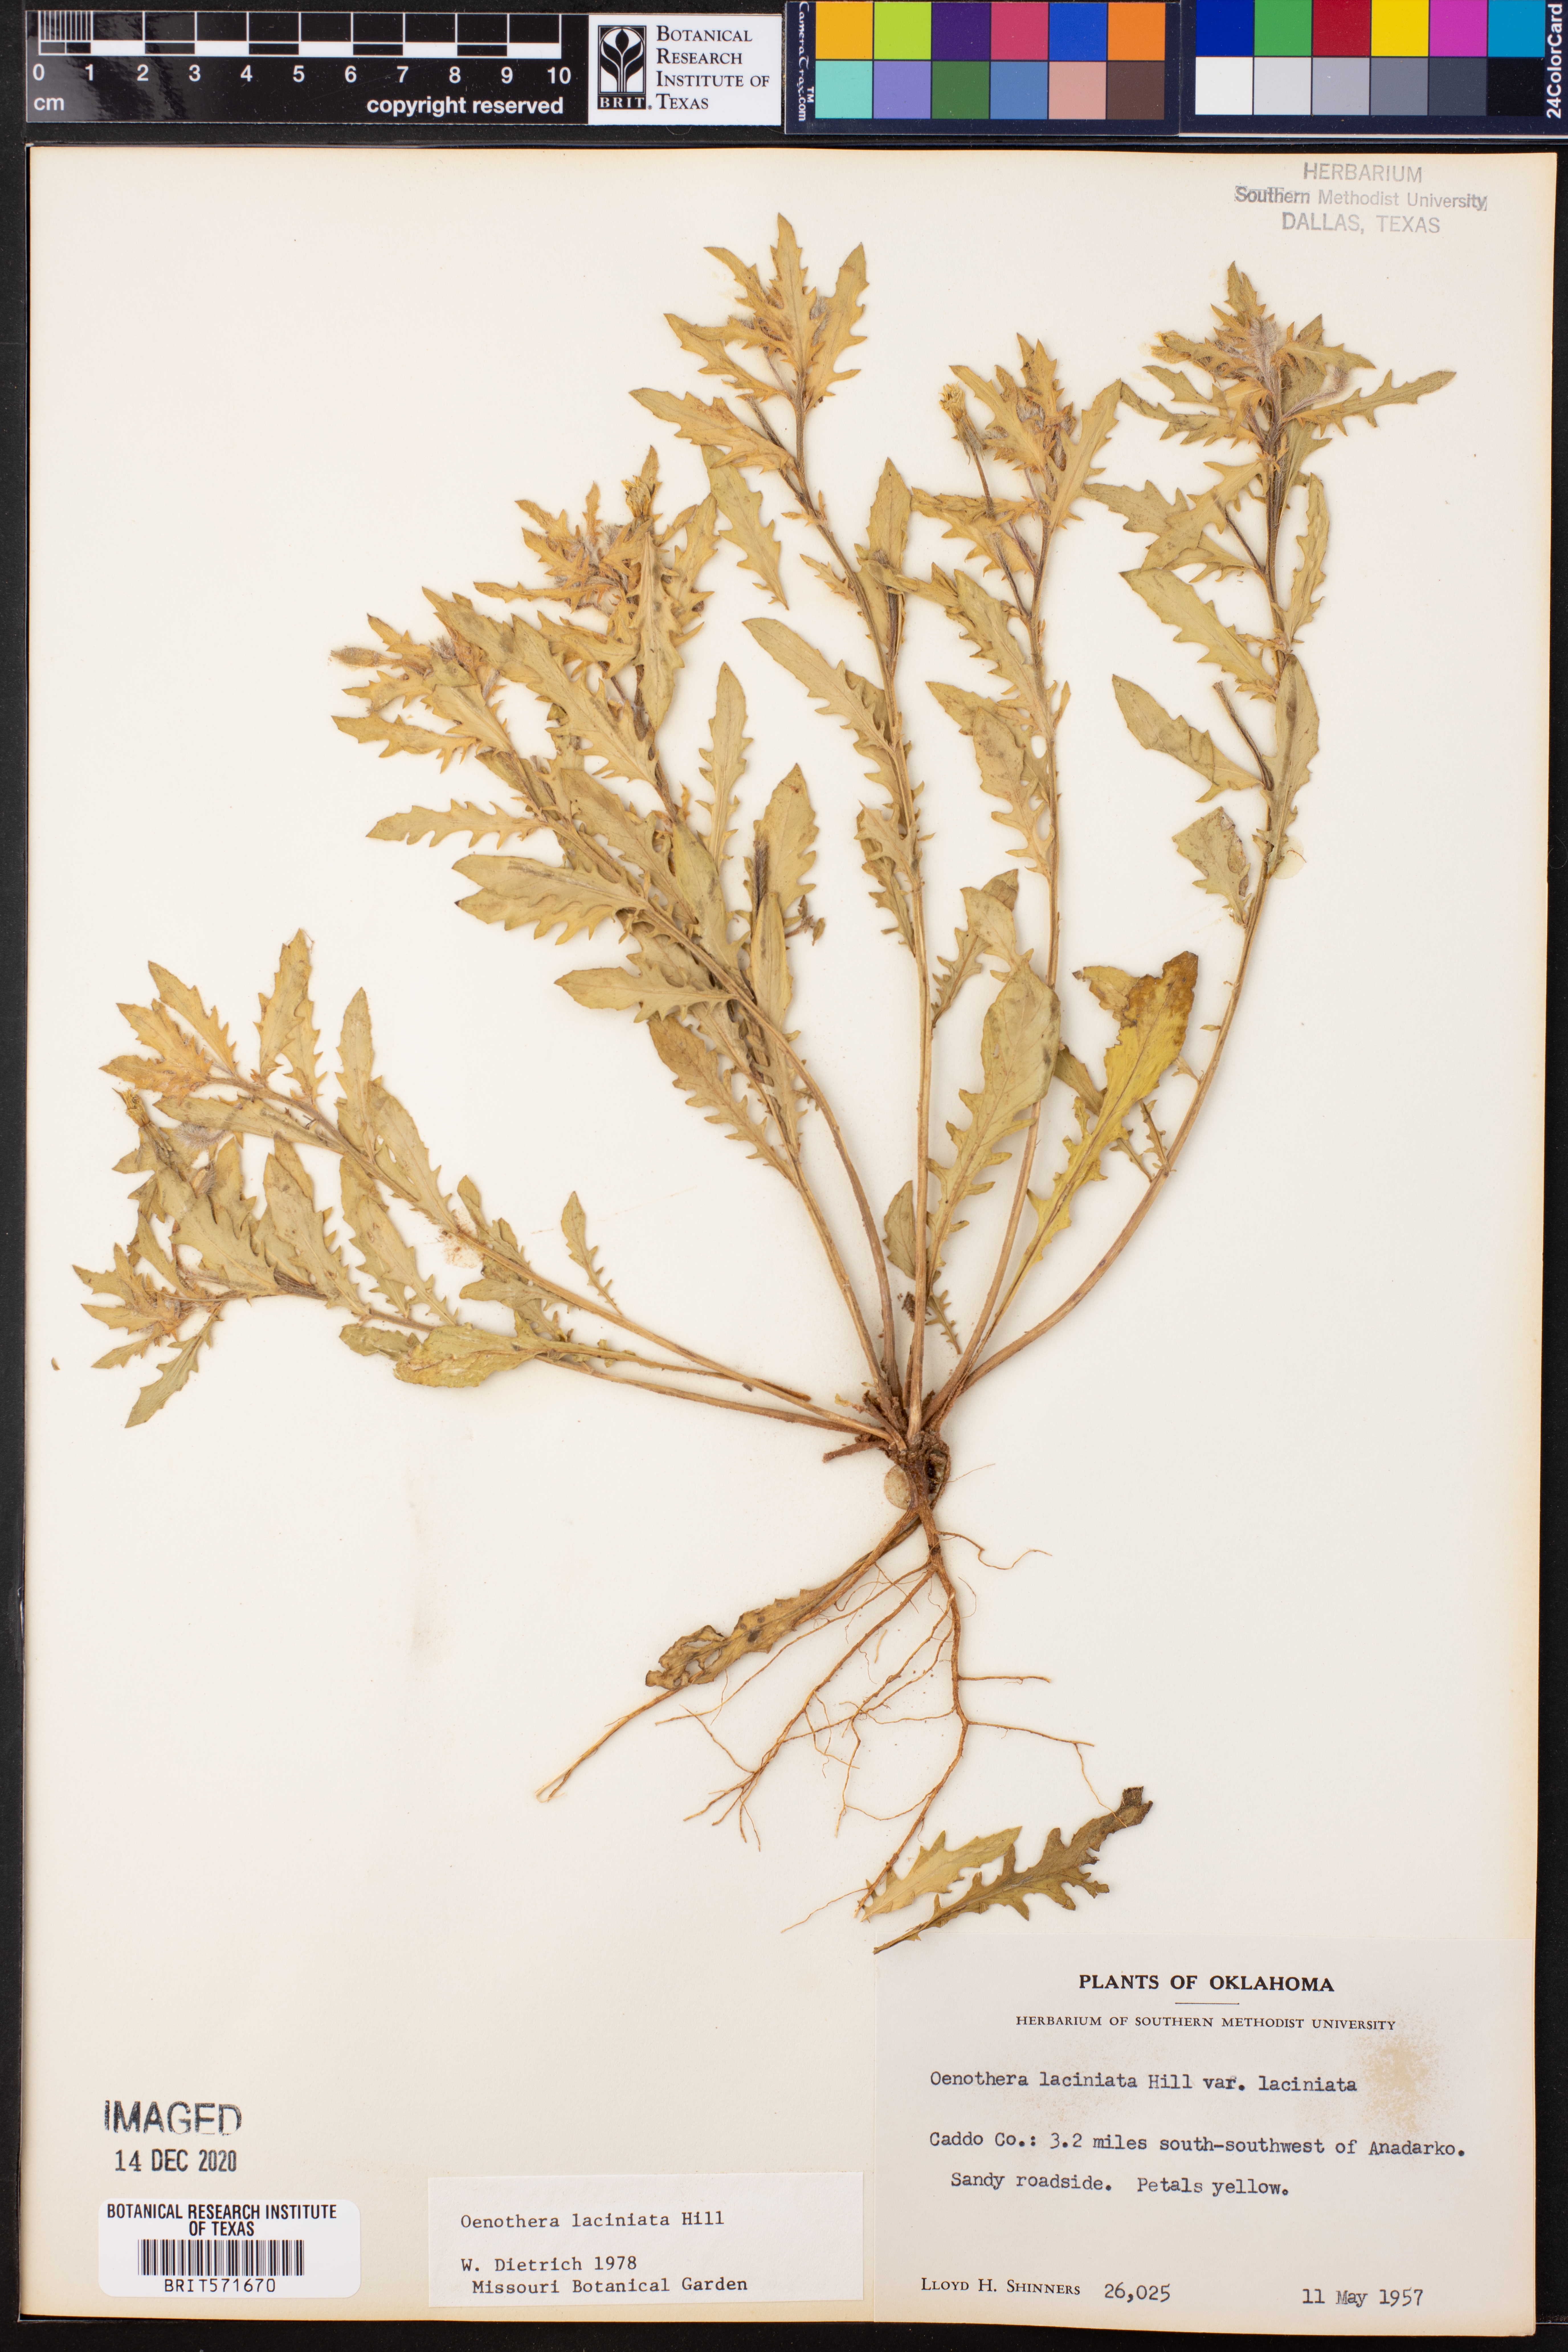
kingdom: Plantae
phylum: Tracheophyta
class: Magnoliopsida
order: Myrtales
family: Onagraceae
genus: Oenothera
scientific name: Oenothera laciniata
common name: Cut-leaved evening-primrose
